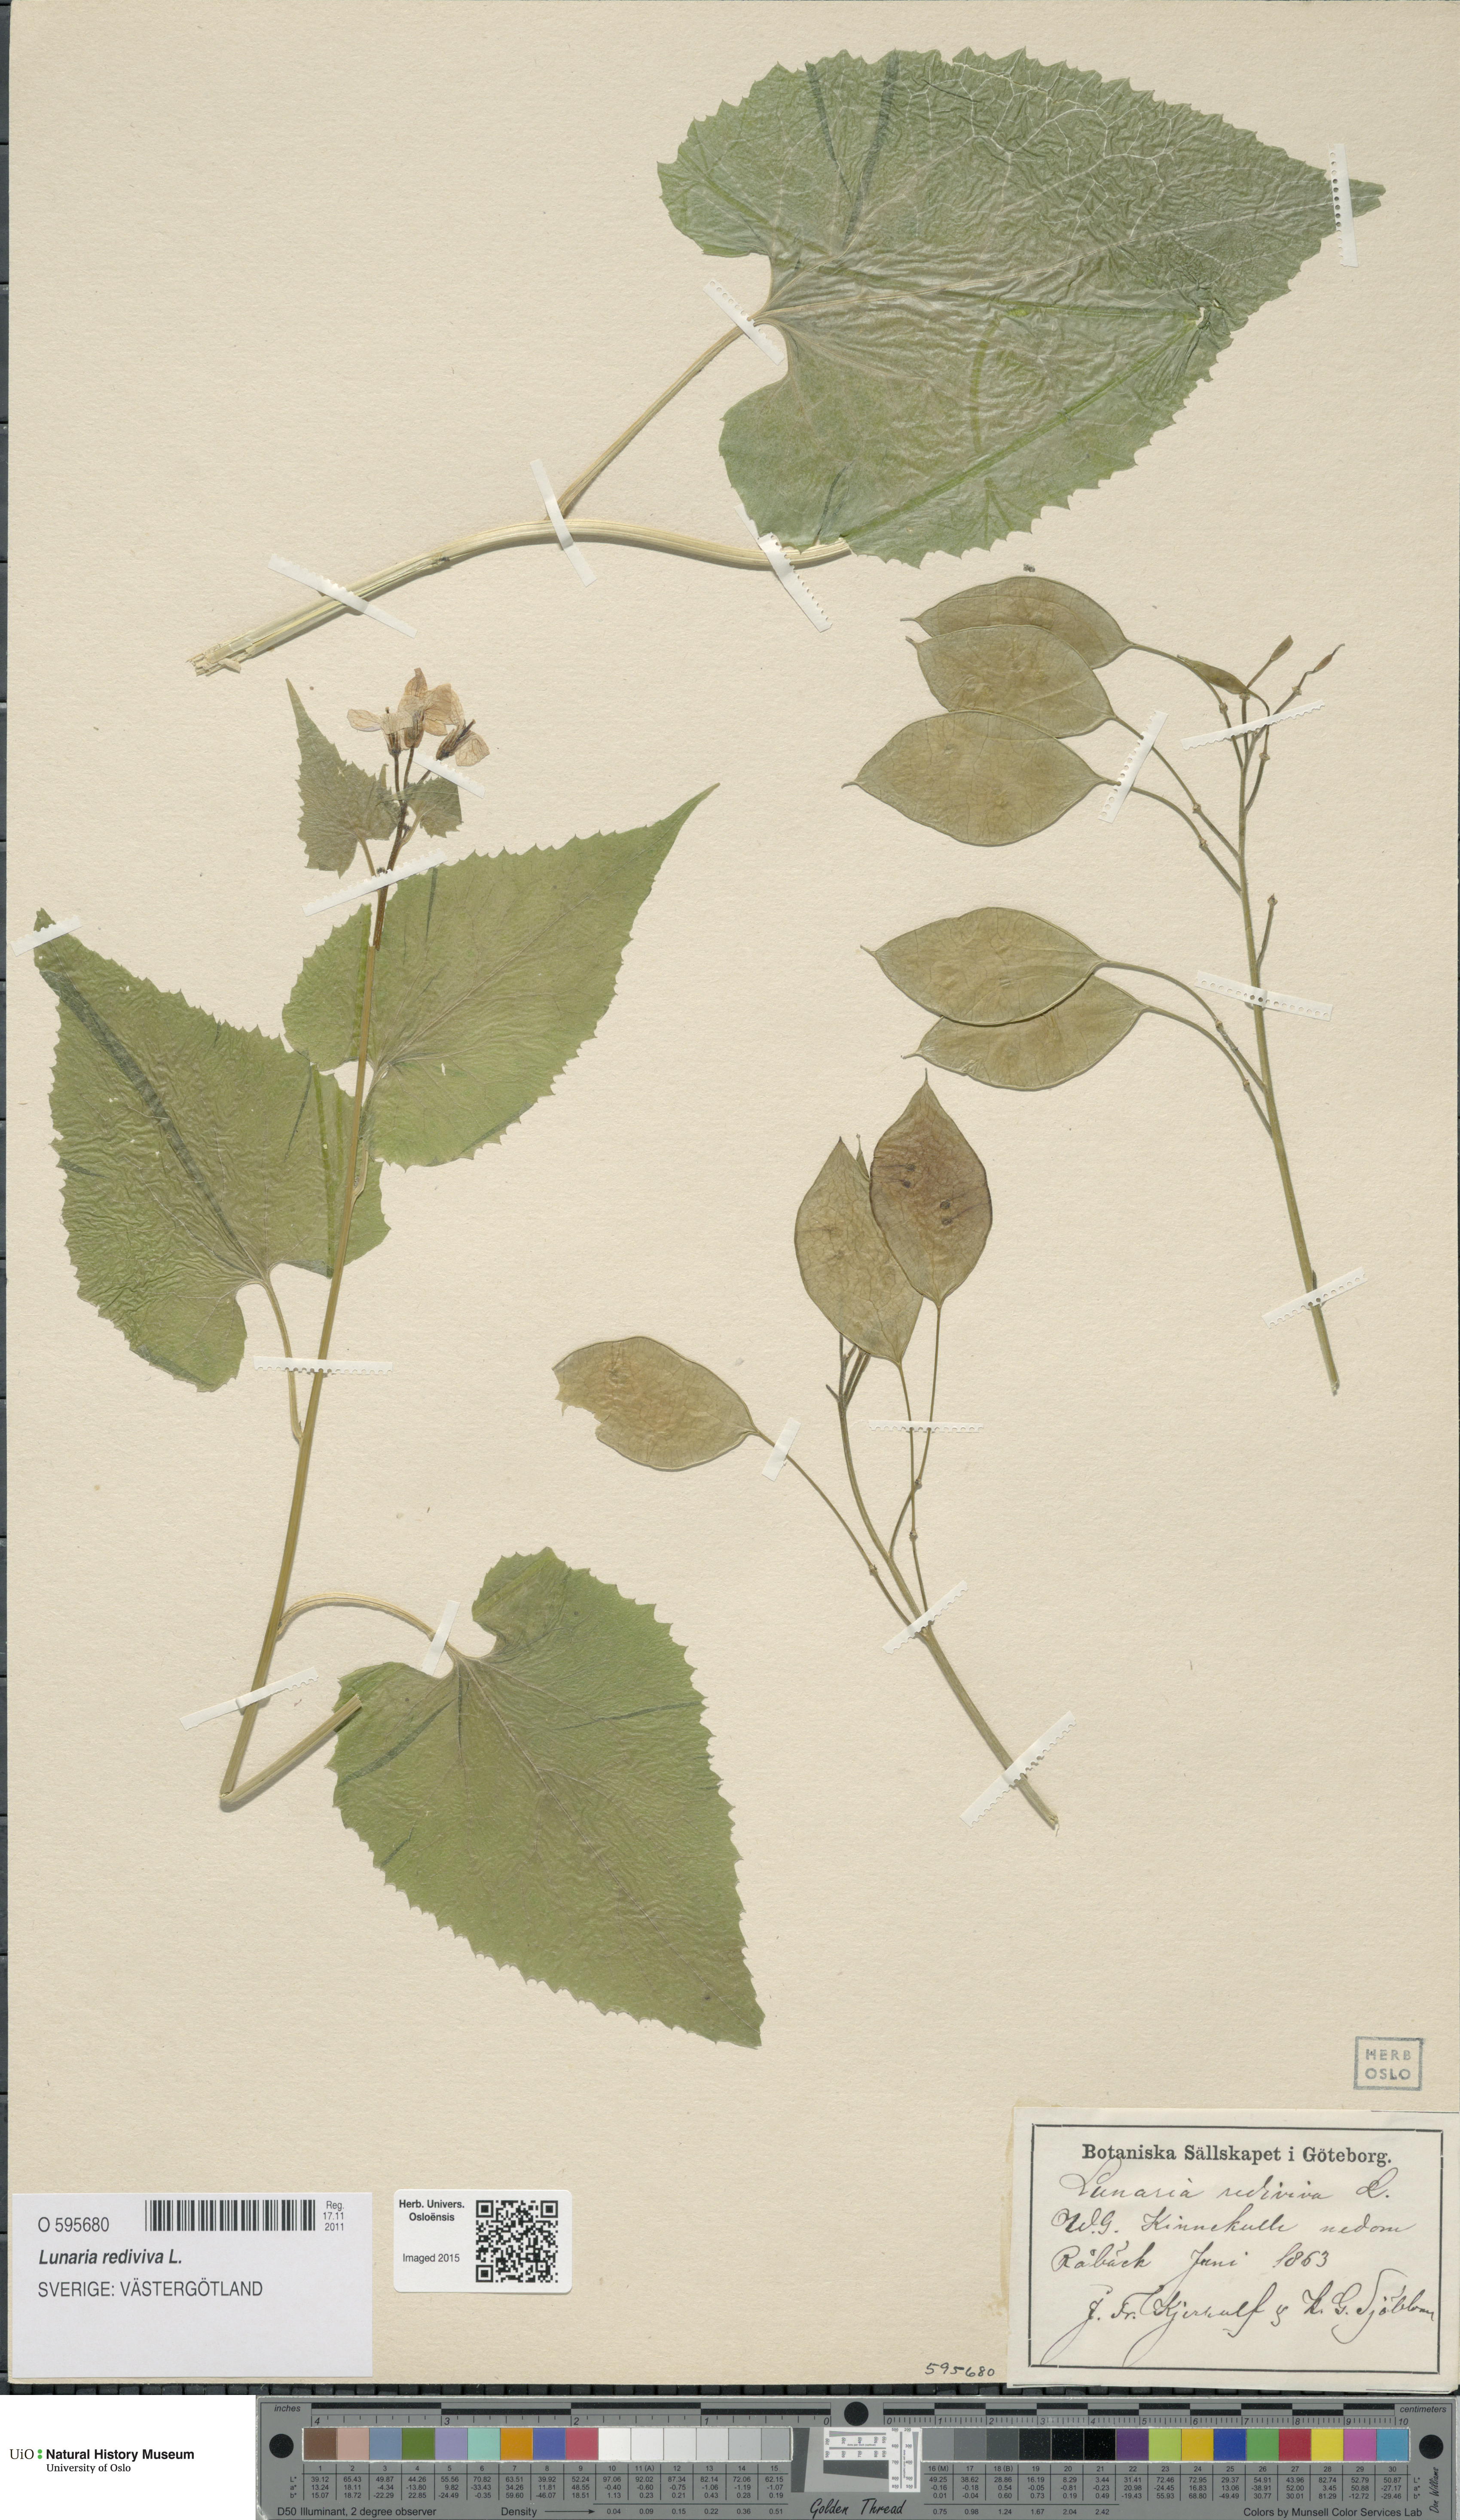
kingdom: Plantae
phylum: Tracheophyta
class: Magnoliopsida
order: Brassicales
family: Brassicaceae
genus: Lunaria
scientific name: Lunaria rediviva
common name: Perennial honesty
